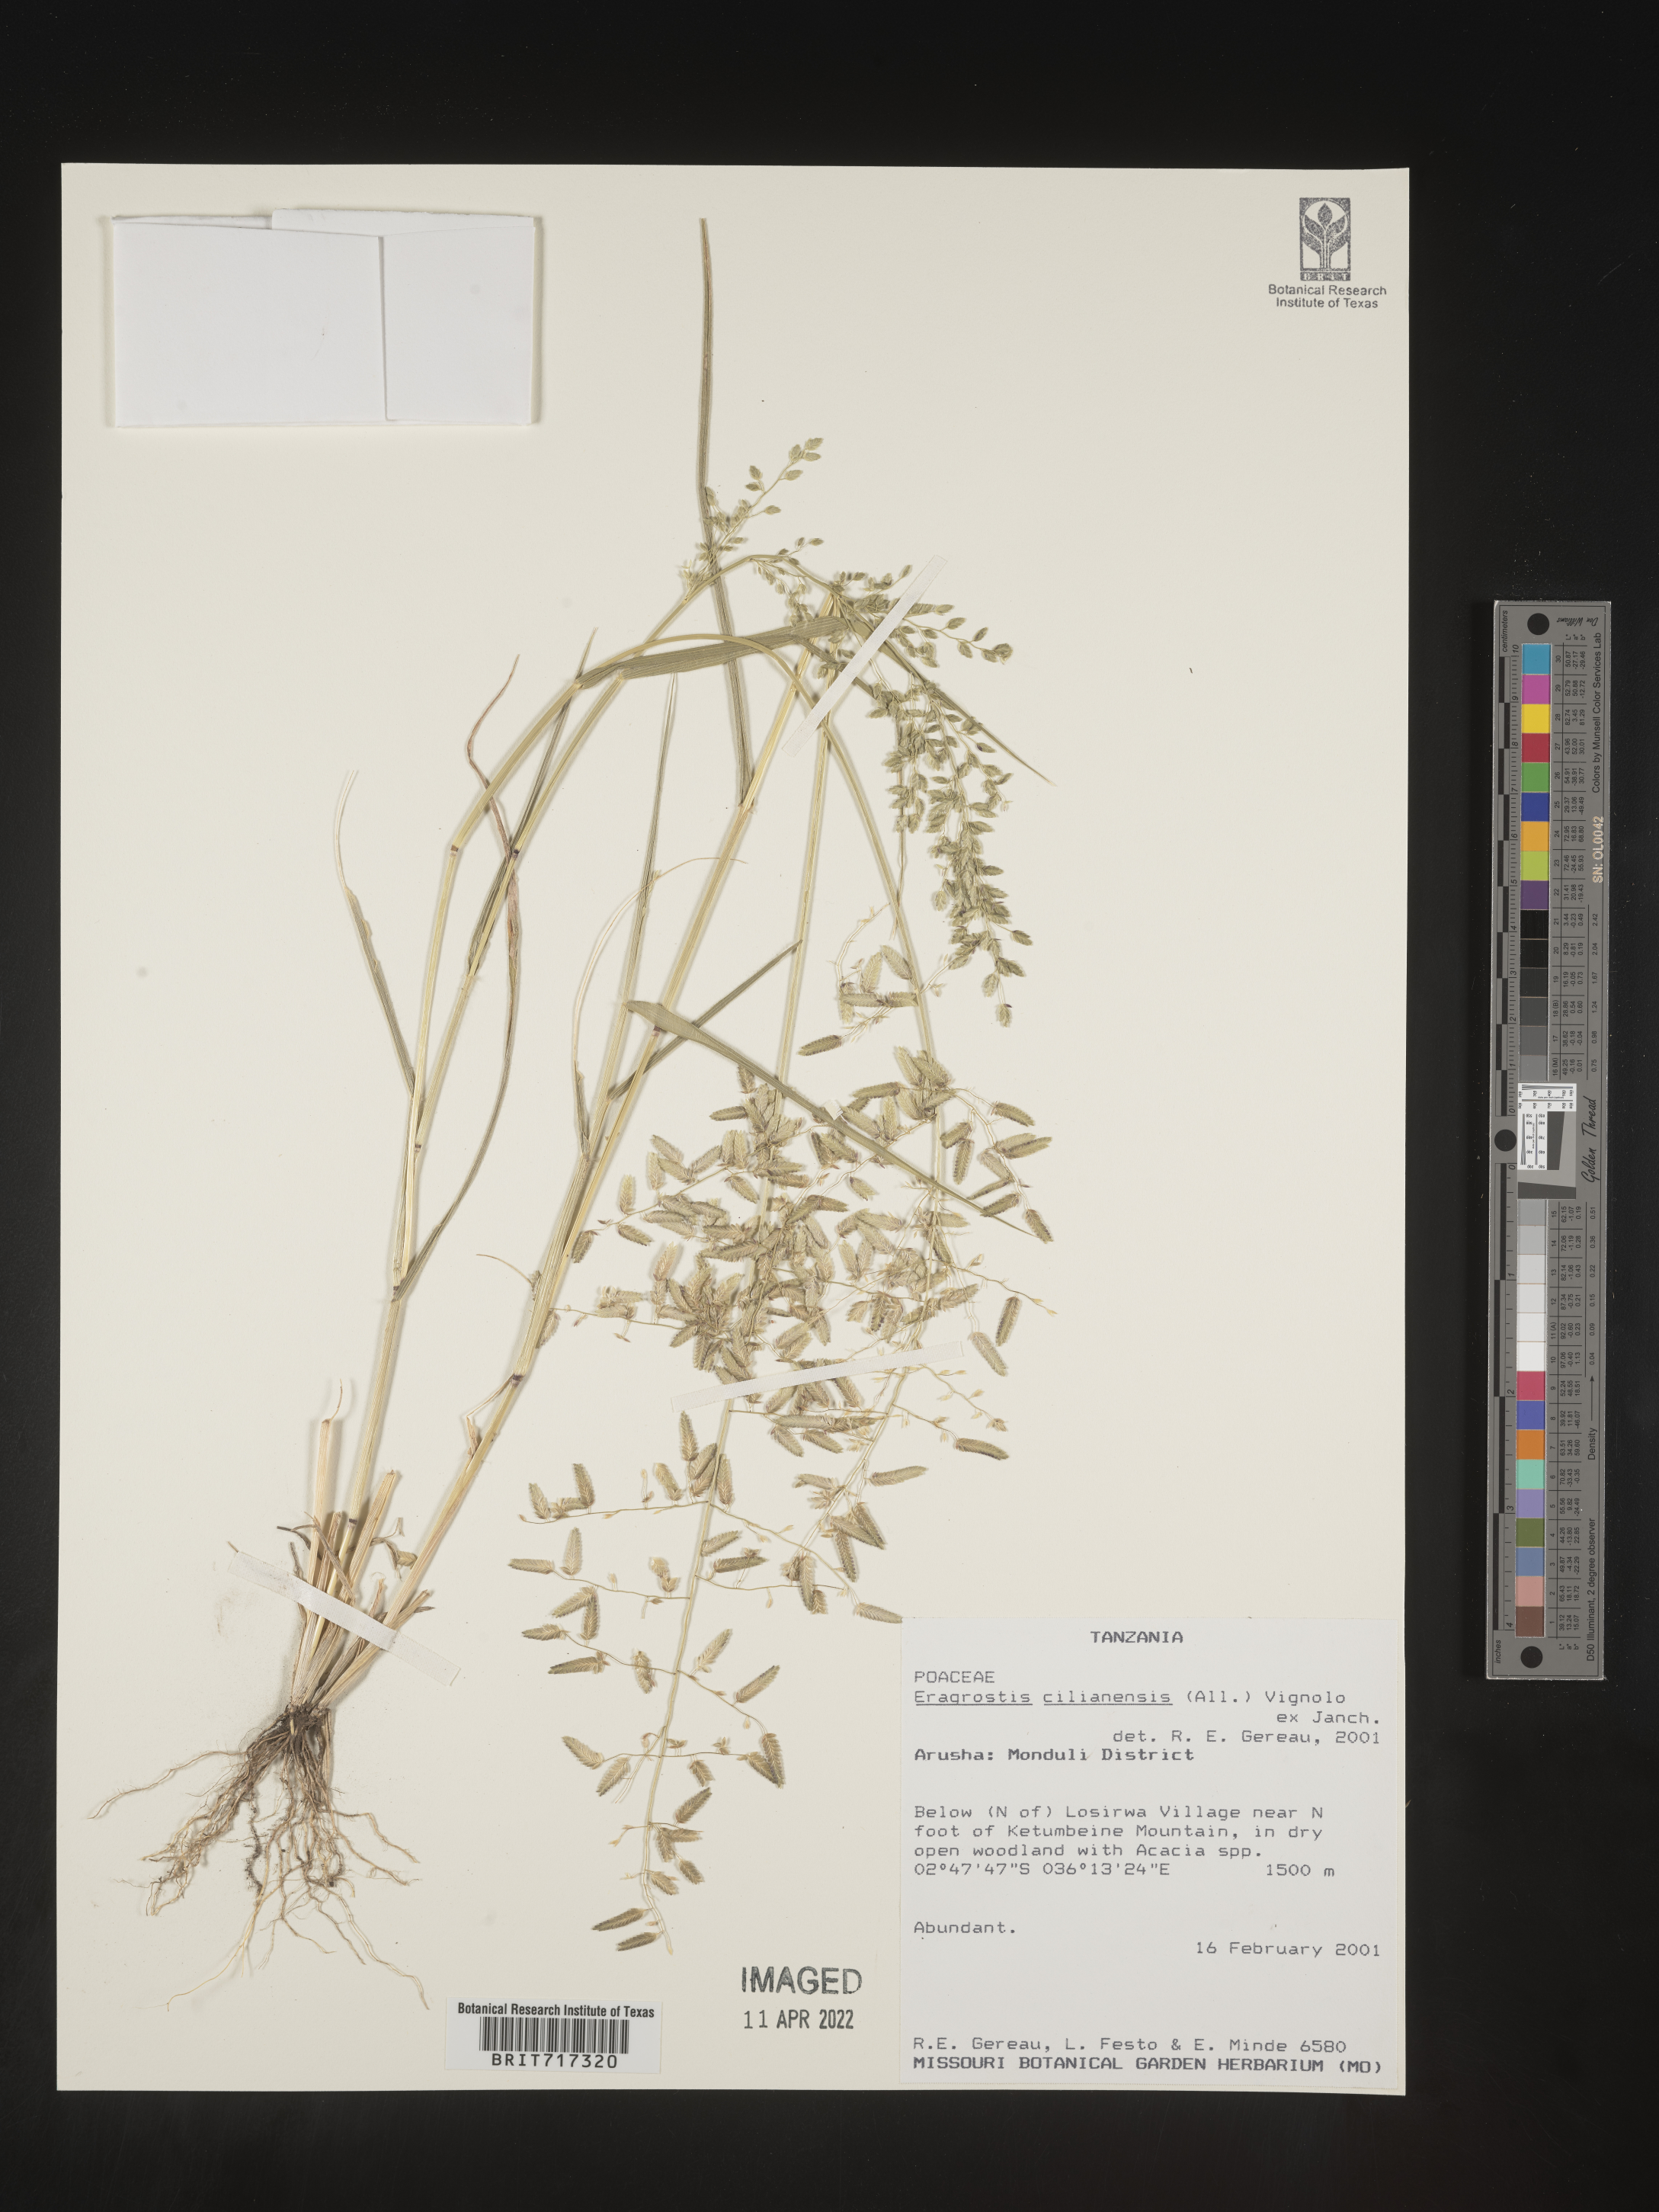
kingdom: Plantae
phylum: Tracheophyta
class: Liliopsida
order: Poales
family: Poaceae
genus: Eragrostis
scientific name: Eragrostis
